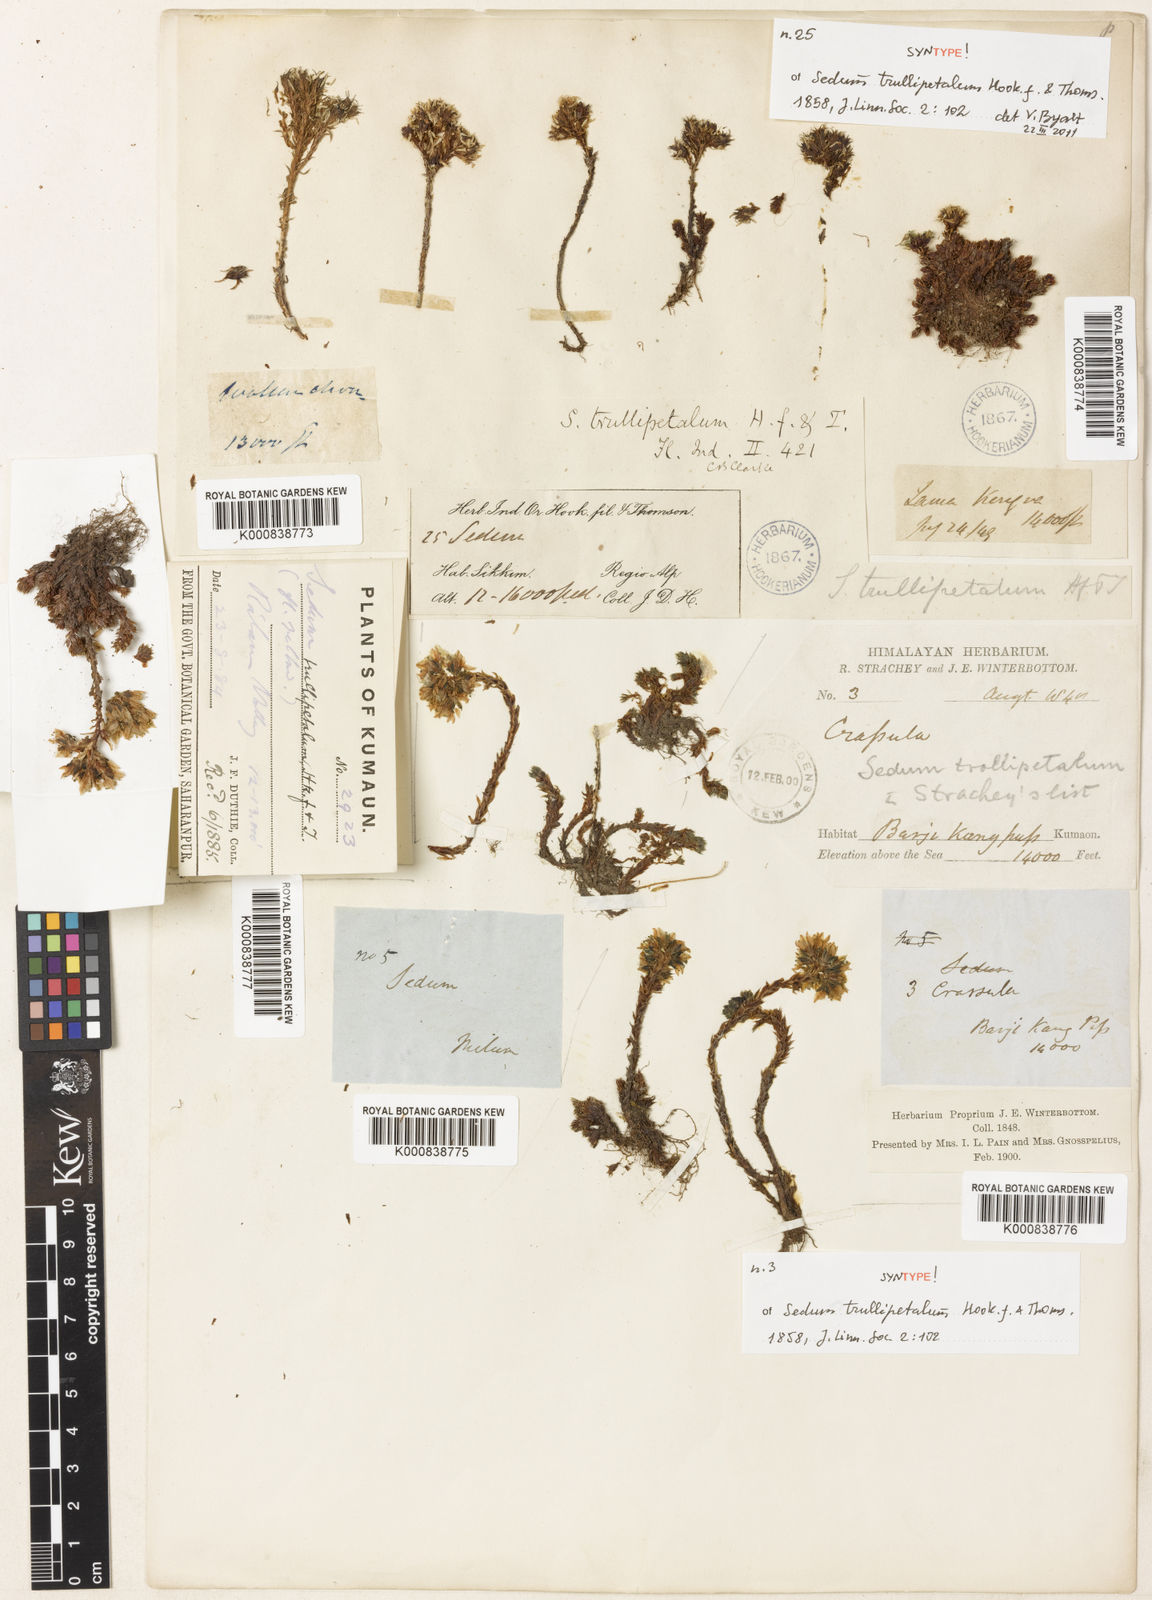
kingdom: Plantae
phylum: Tracheophyta
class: Magnoliopsida
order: Saxifragales
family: Crassulaceae
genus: Sedum
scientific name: Sedum trullipetalum
